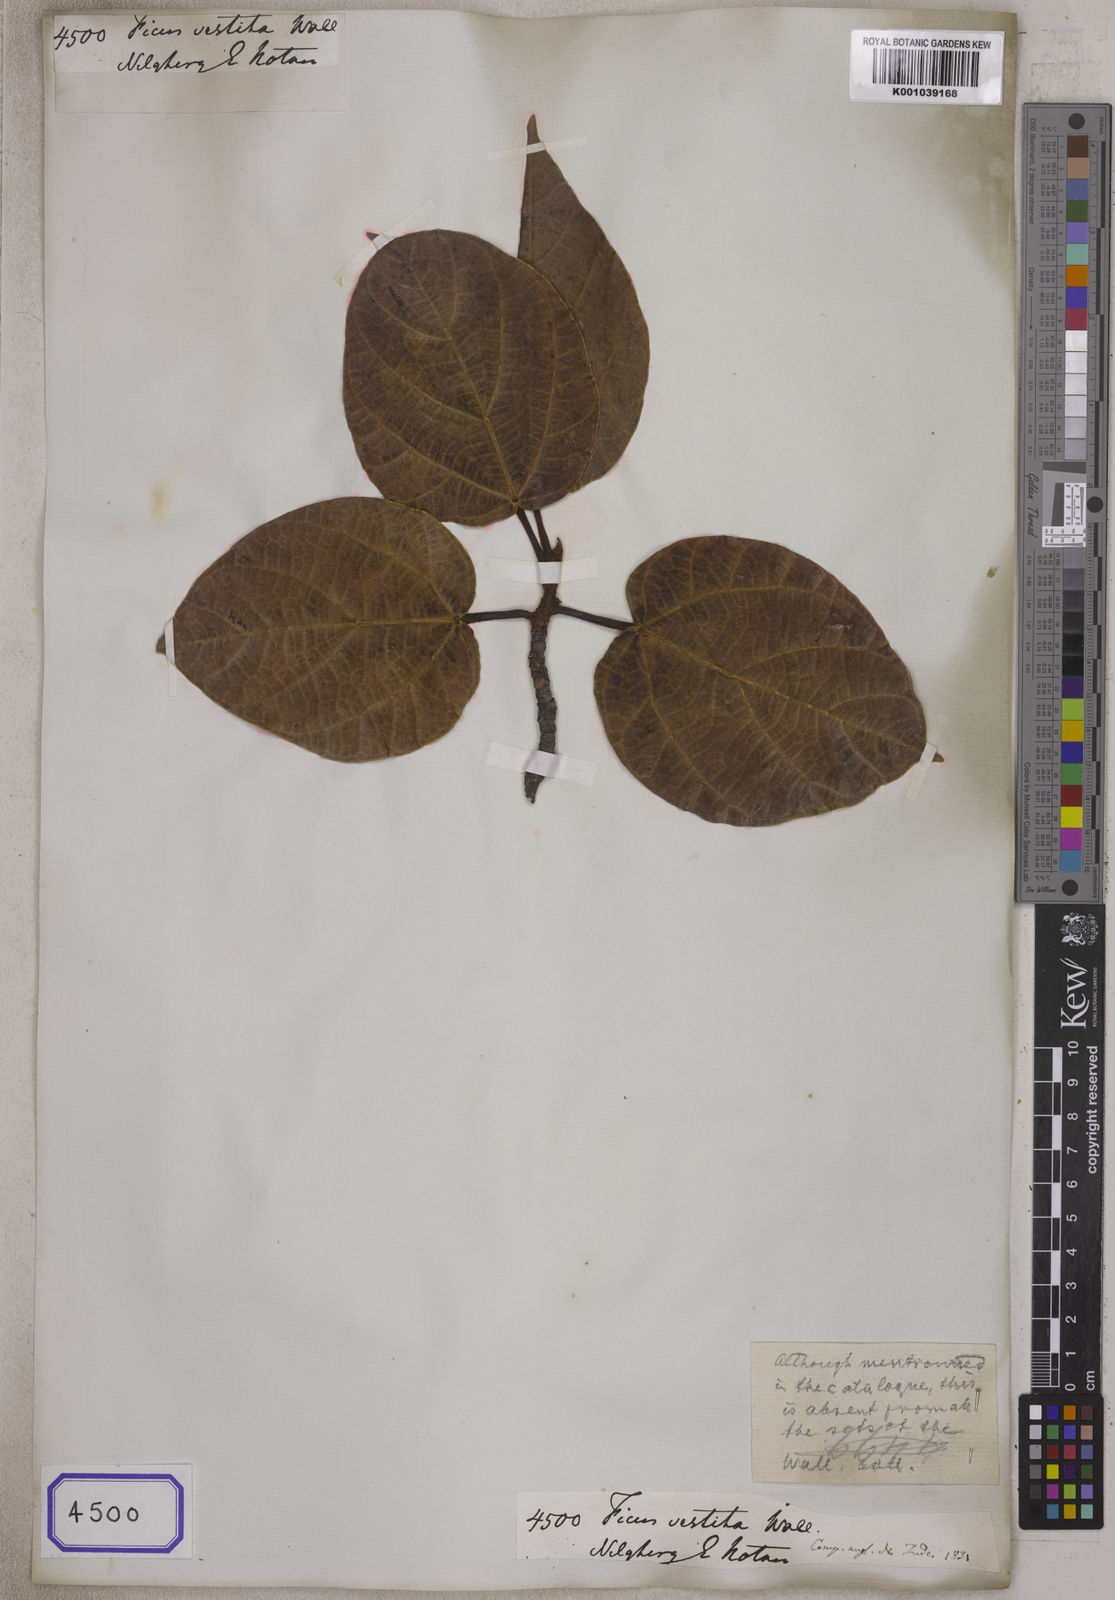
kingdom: Plantae
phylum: Tracheophyta
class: Magnoliopsida
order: Rosales
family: Moraceae
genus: Ficus
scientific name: Ficus
